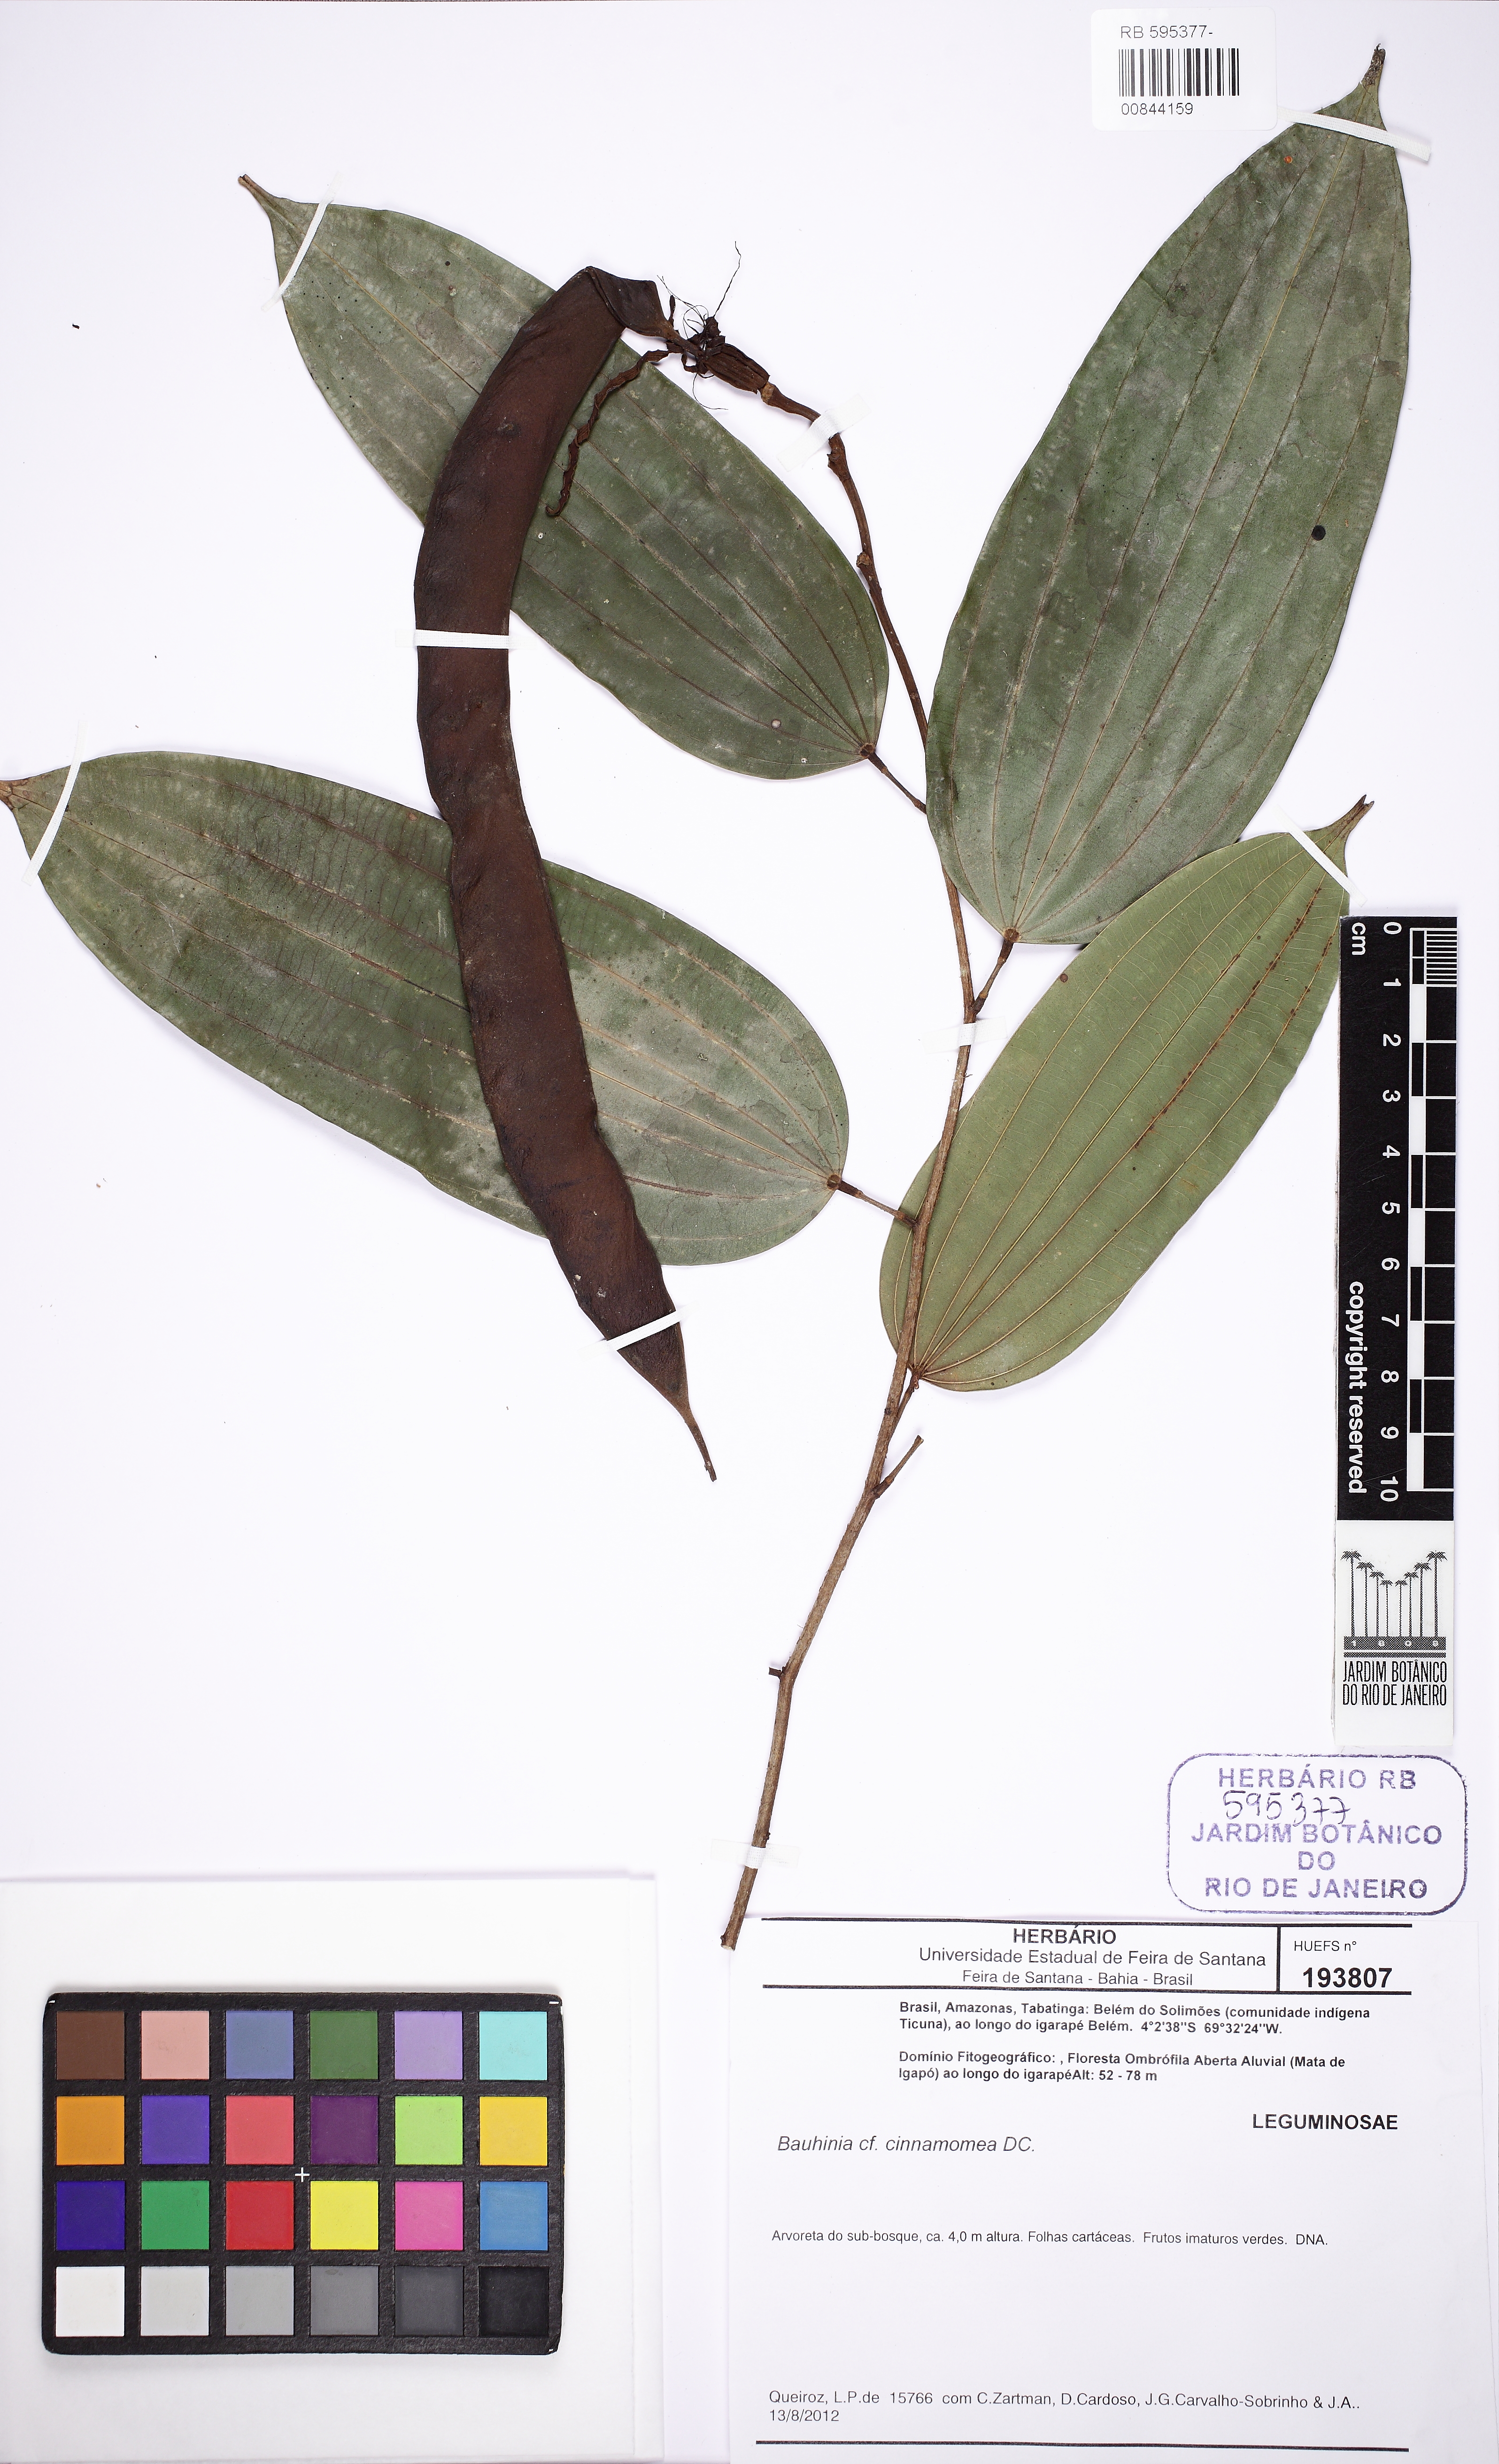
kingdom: Plantae
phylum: Tracheophyta
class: Magnoliopsida
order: Fabales
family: Fabaceae
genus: Bauhinia
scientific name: Bauhinia cinnamomea
